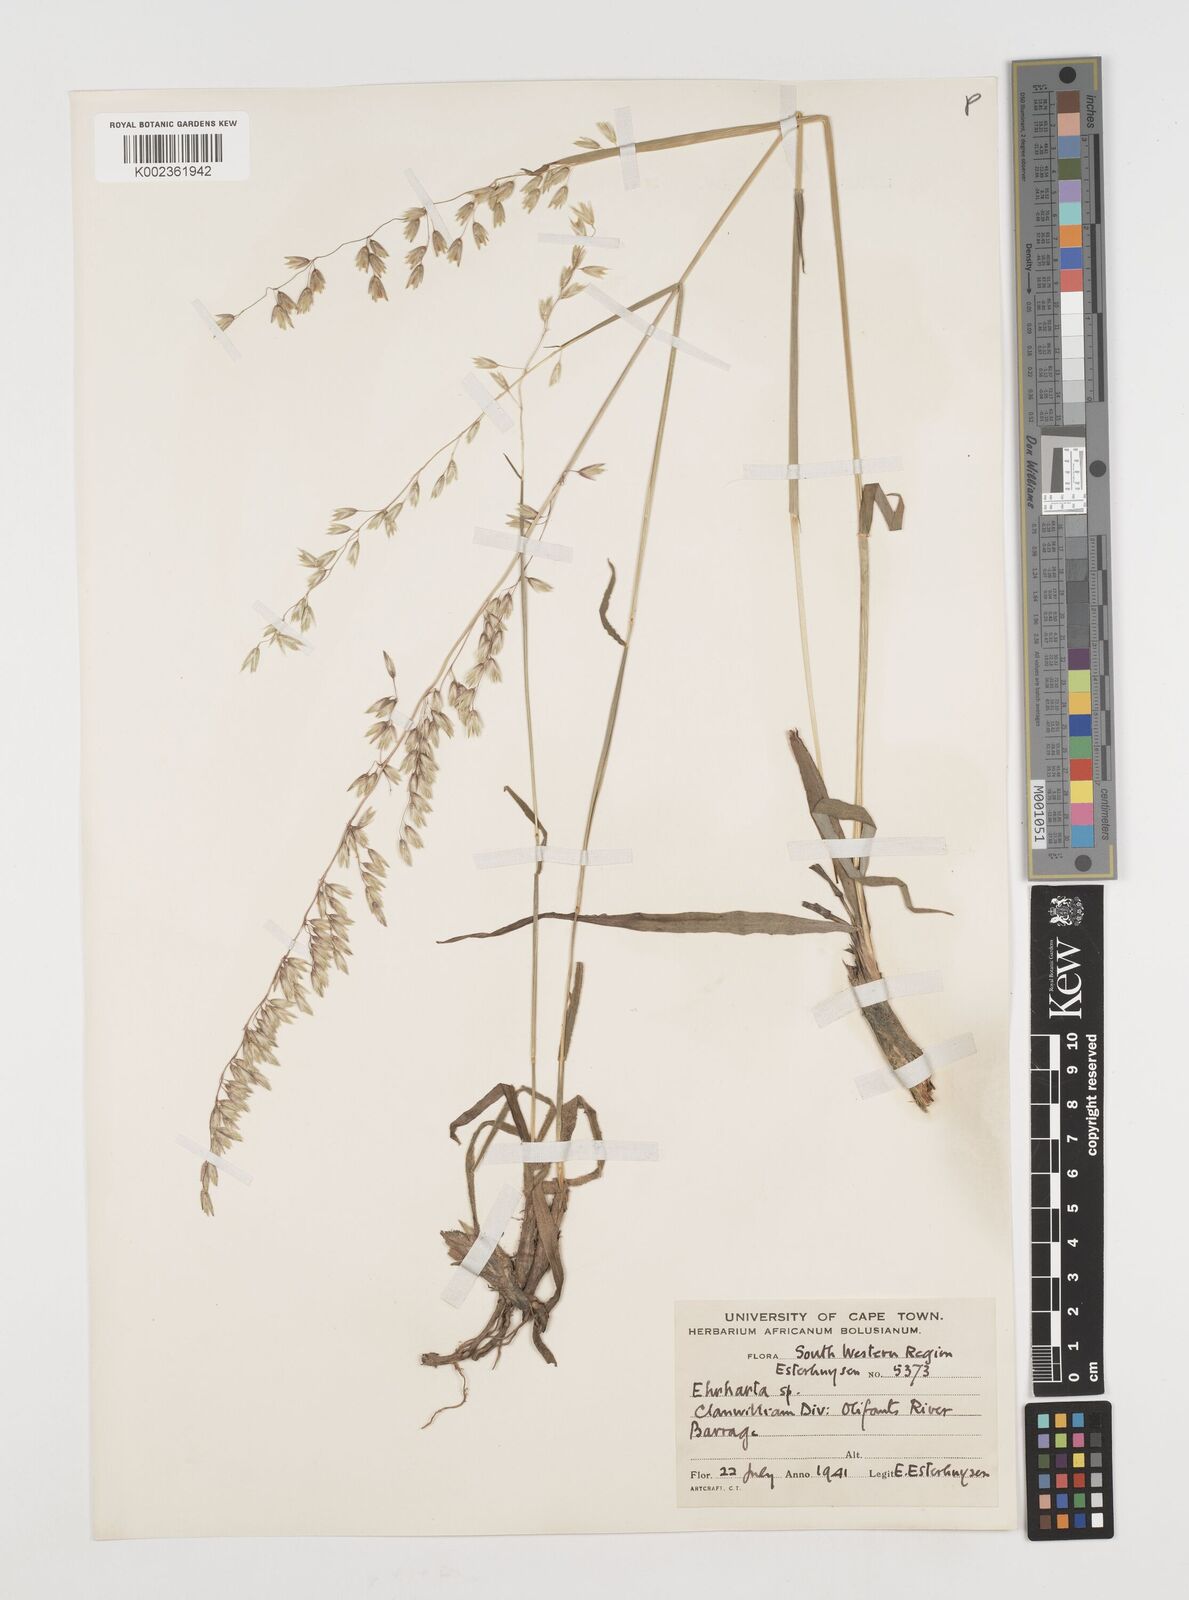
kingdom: Plantae
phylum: Tracheophyta
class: Liliopsida
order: Poales
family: Poaceae
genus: Ehrharta
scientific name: Ehrharta calycina
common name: Perennial veldtgrass
